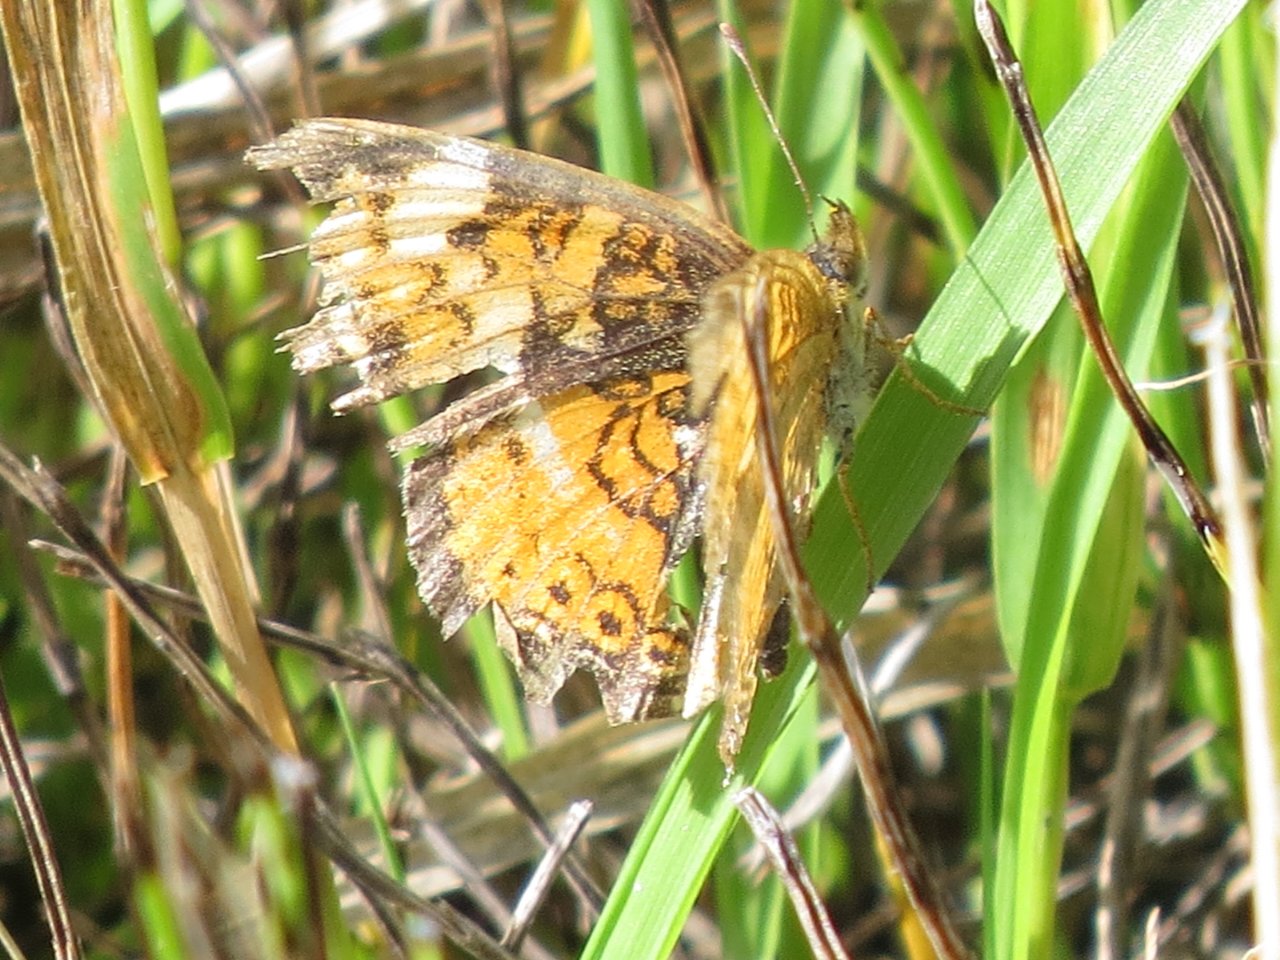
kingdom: Animalia
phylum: Arthropoda
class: Insecta
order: Lepidoptera
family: Nymphalidae
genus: Phyciodes
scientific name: Phyciodes tharos
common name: Northern Crescent
